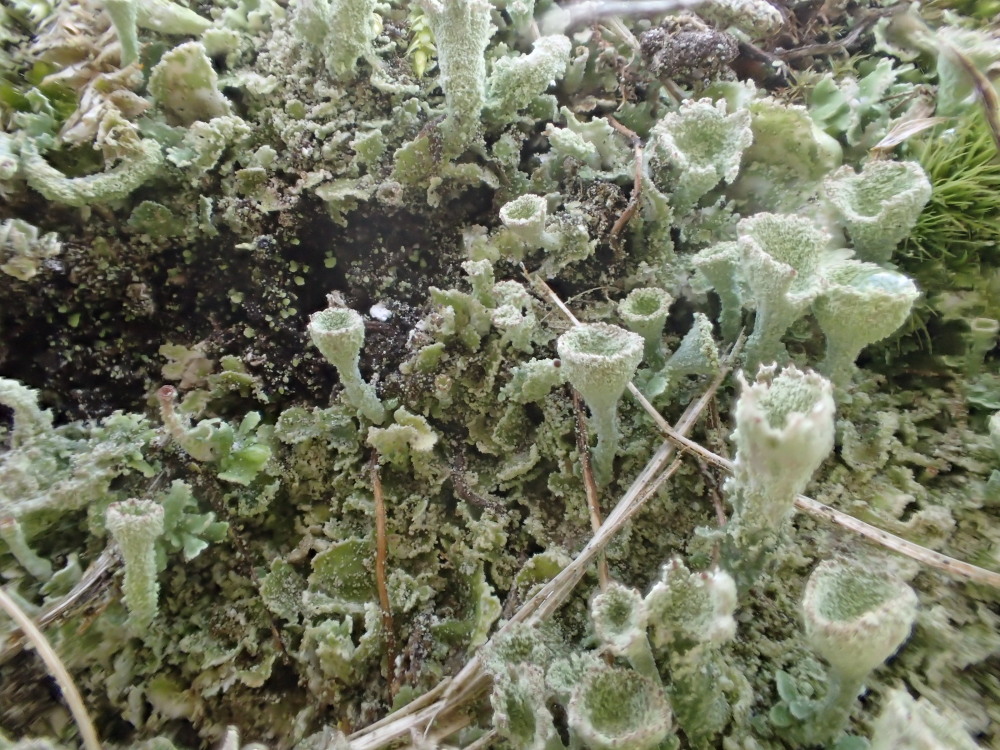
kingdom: Fungi
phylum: Ascomycota
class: Lecanoromycetes
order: Lecanorales
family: Cladoniaceae
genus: Cladonia
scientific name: Cladonia humilis
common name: lav bægerlav
